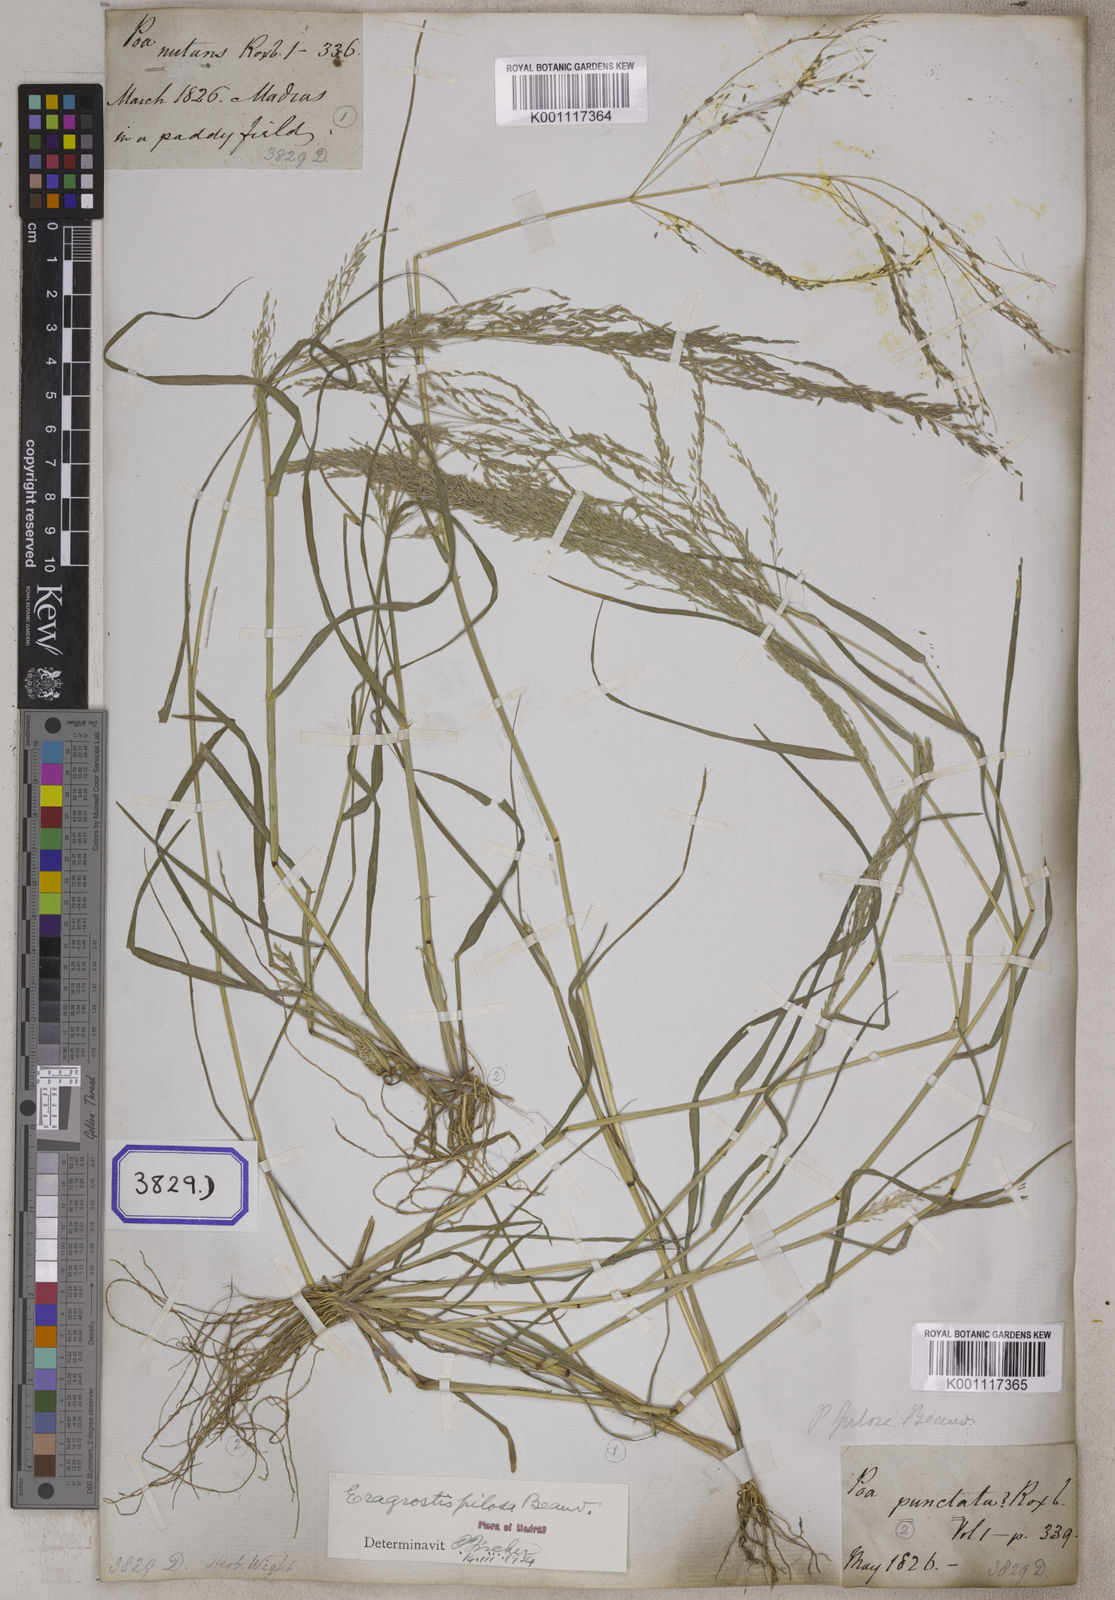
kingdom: Plantae
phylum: Tracheophyta
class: Liliopsida
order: Poales
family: Poaceae
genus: Eragrostis
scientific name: Eragrostis
